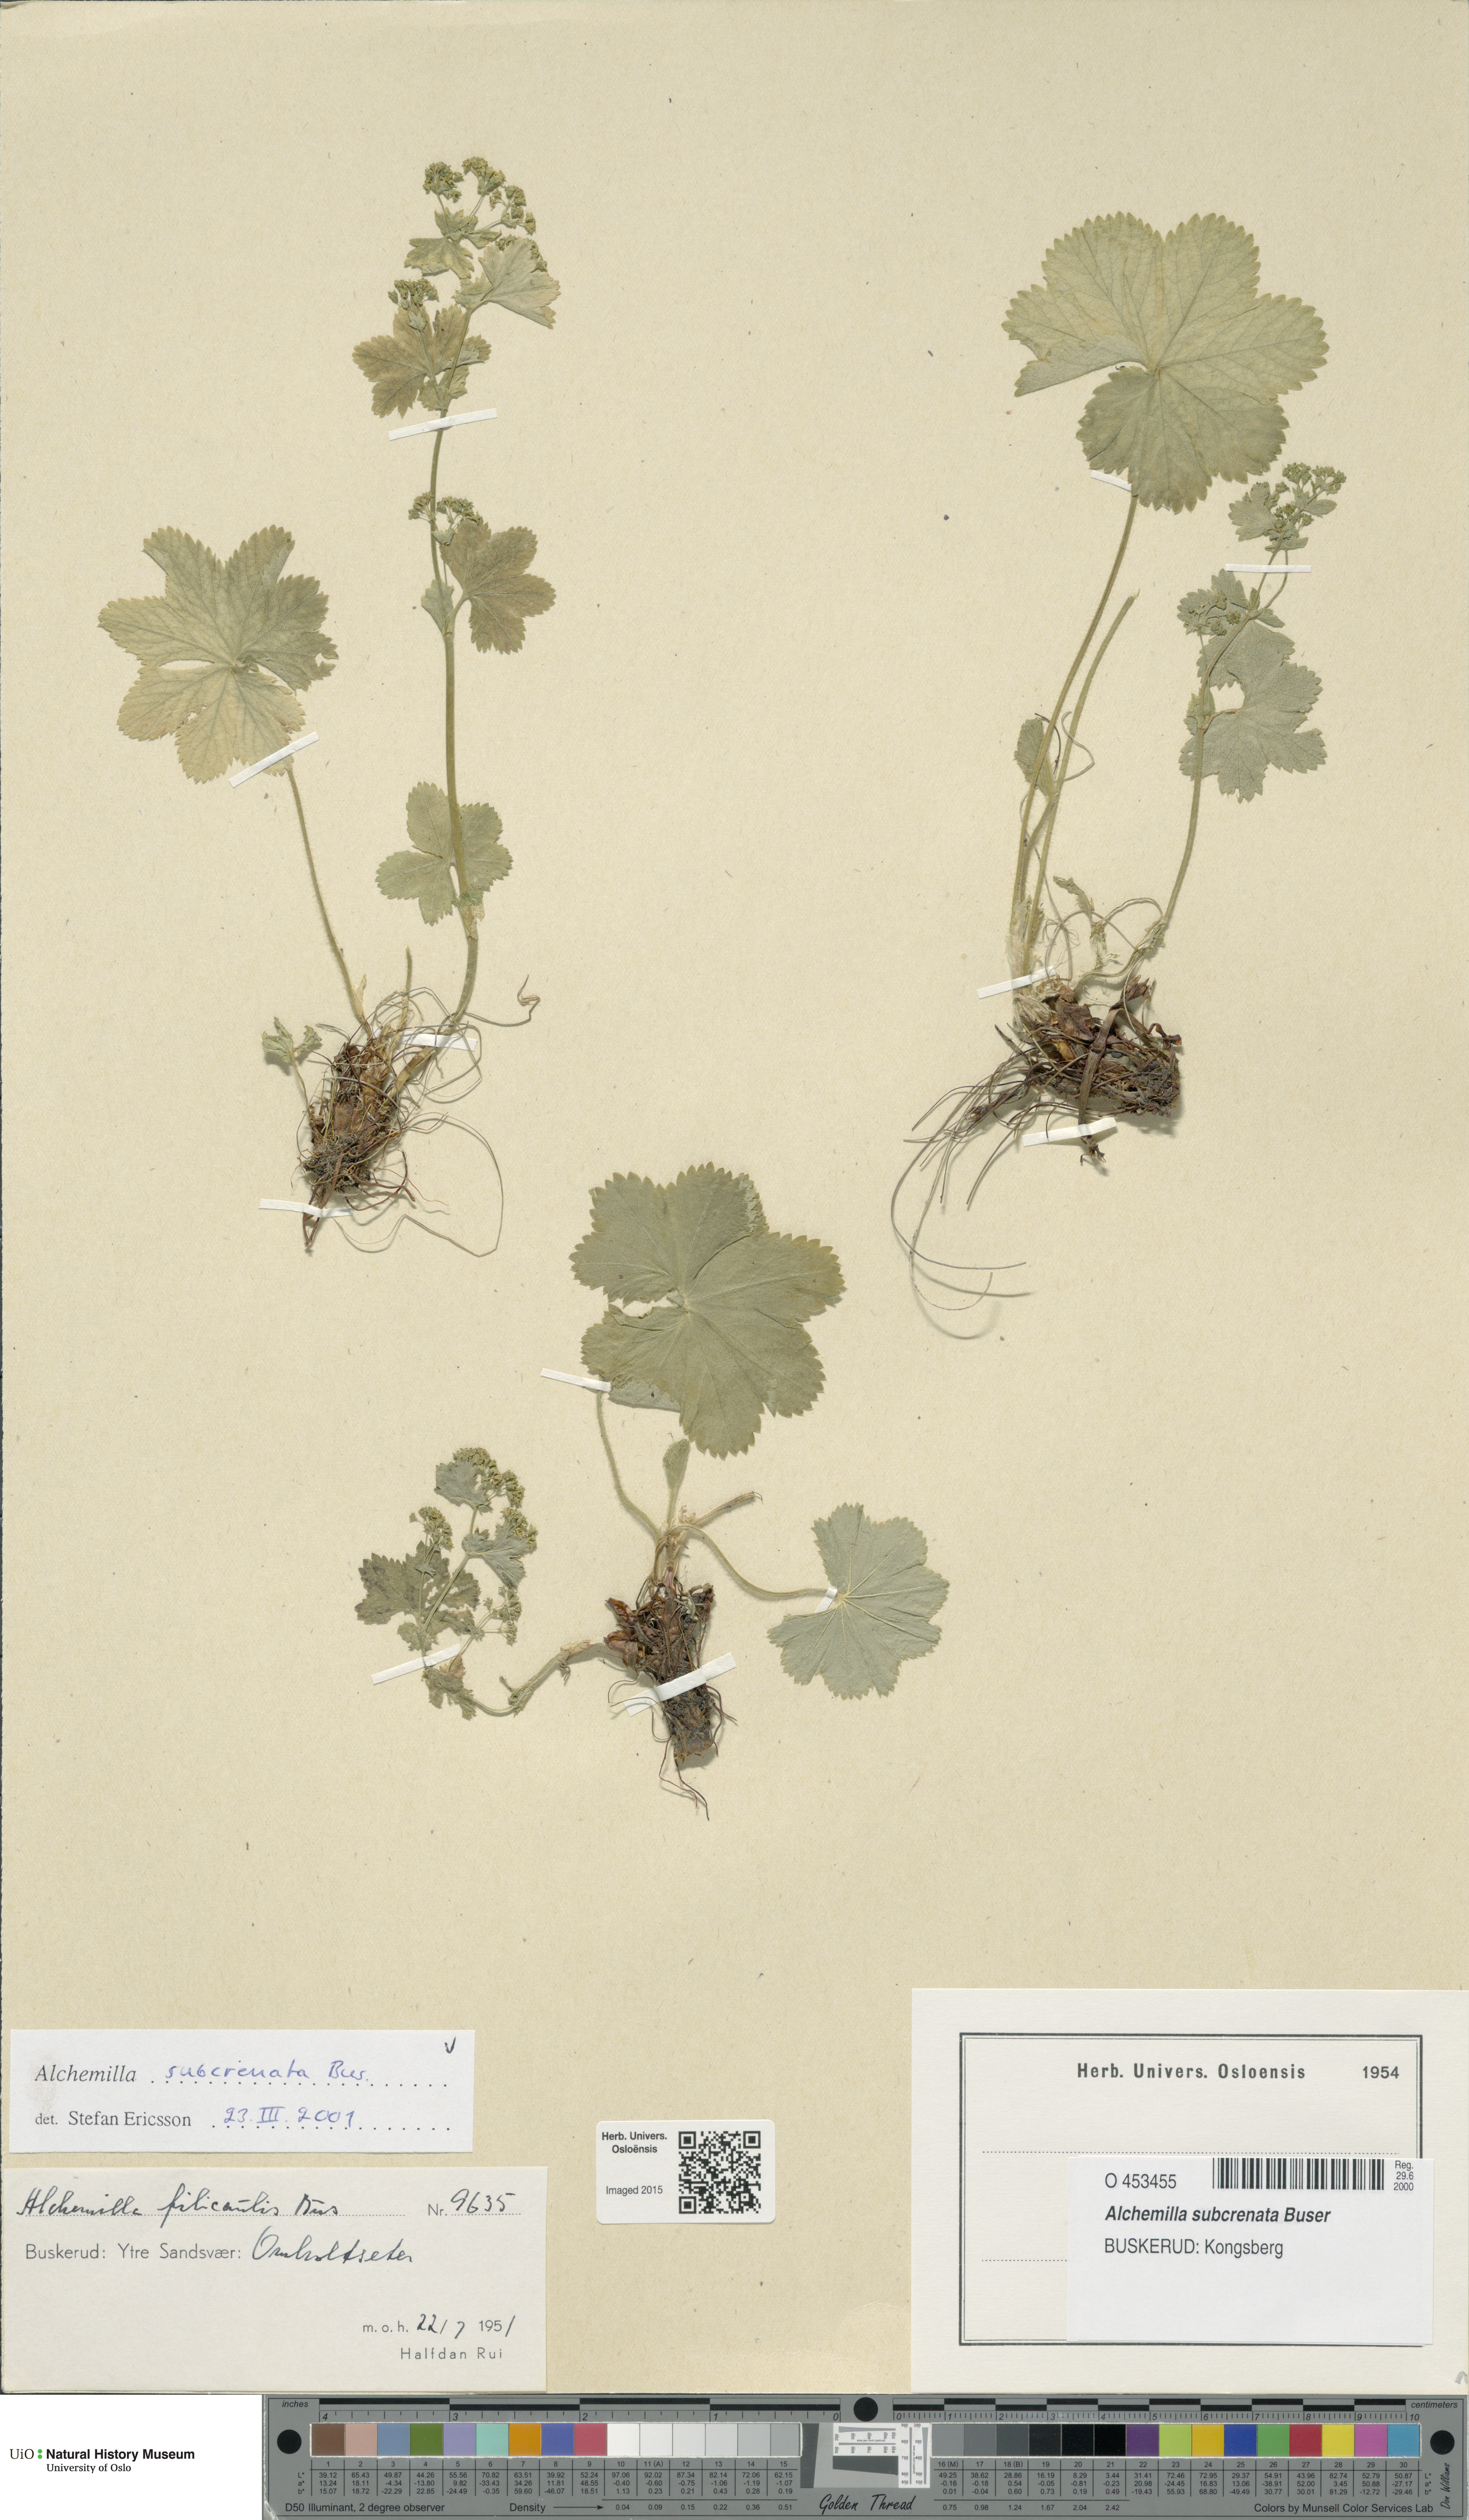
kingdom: Plantae
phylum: Tracheophyta
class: Magnoliopsida
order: Rosales
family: Rosaceae
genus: Alchemilla
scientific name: Alchemilla subcrenata
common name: Broadtooth lady's mantle
